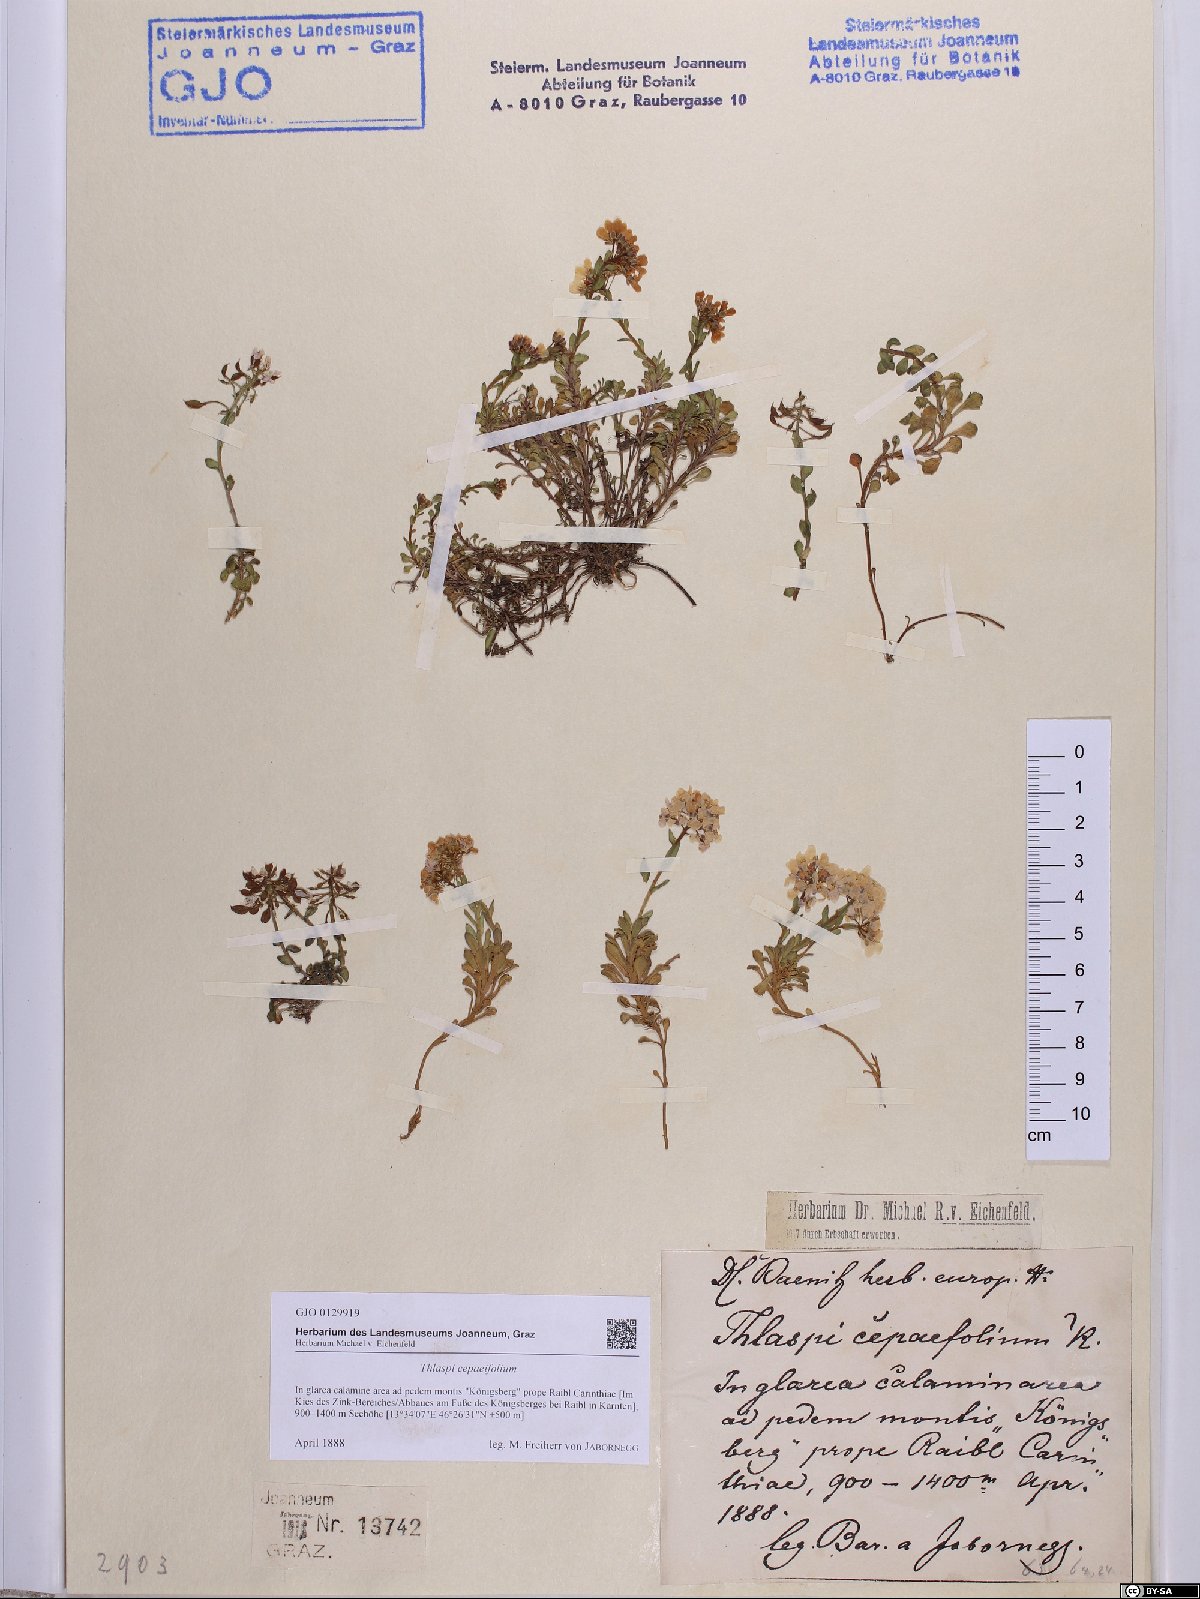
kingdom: Plantae
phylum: Tracheophyta
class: Magnoliopsida
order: Brassicales
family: Brassicaceae
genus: Noccaea
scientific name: Noccaea cepaeifolia
